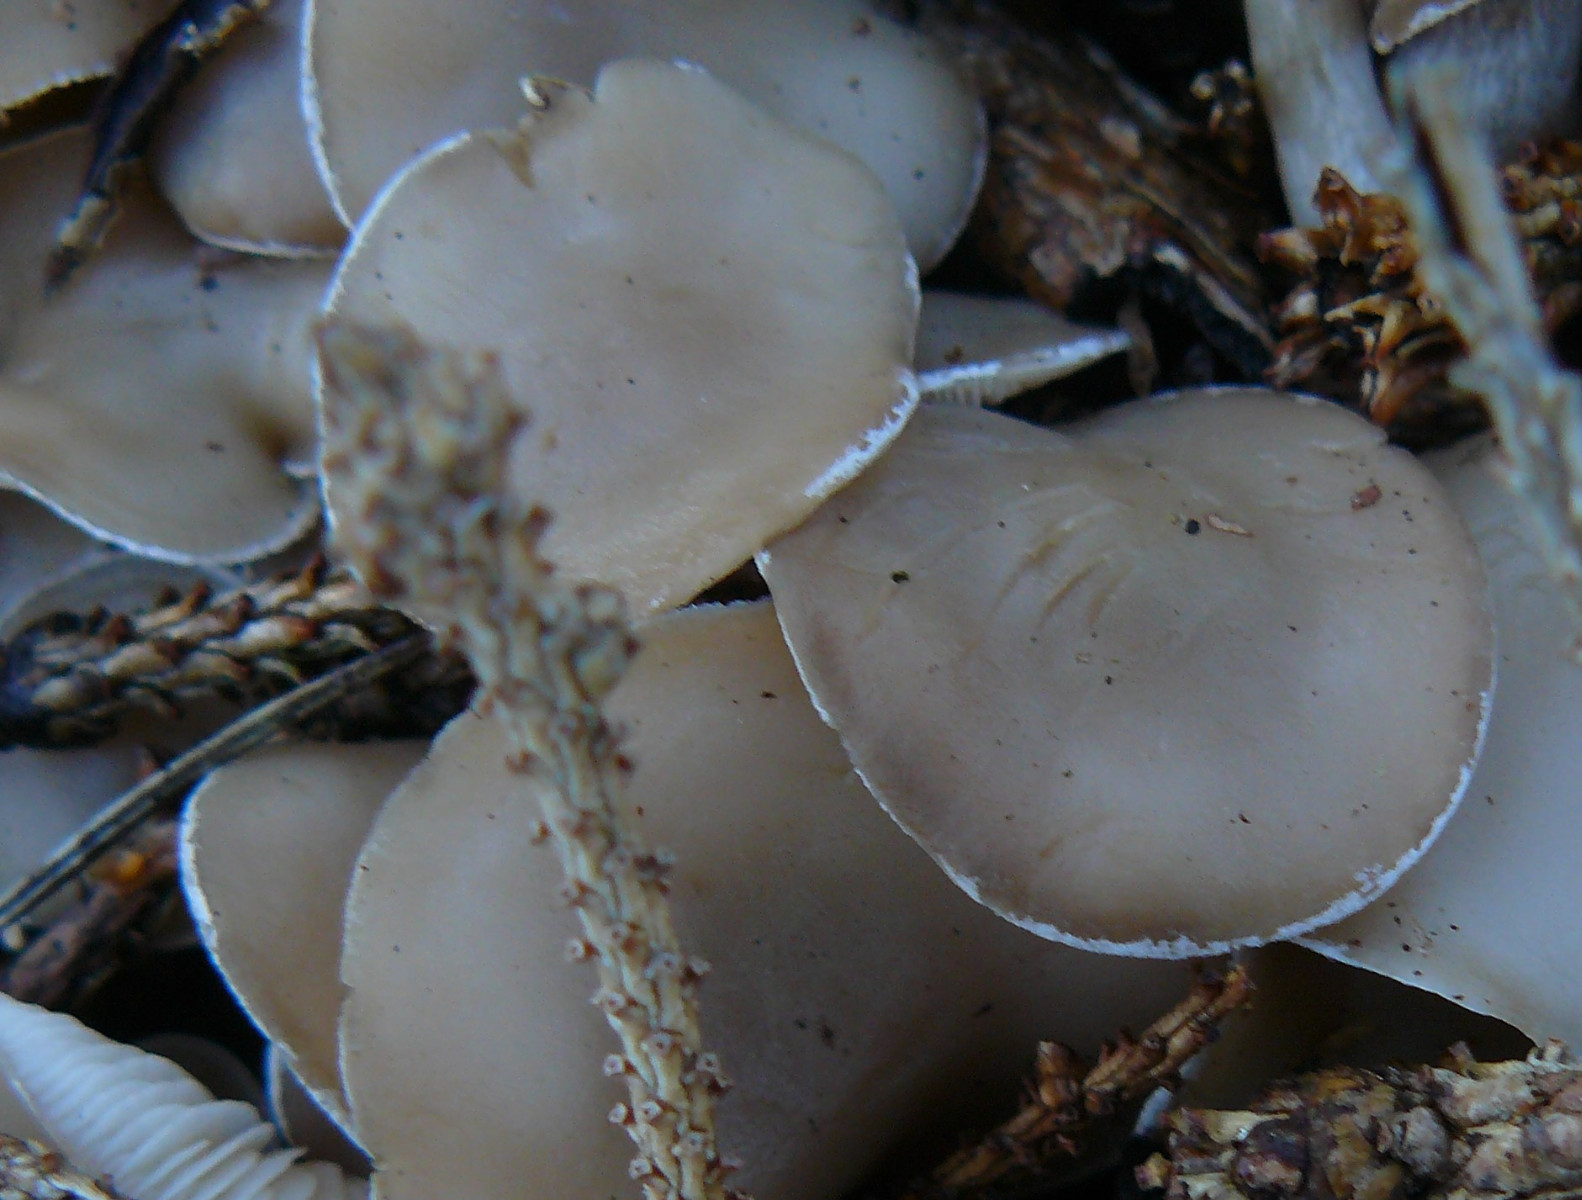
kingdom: Fungi
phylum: Basidiomycota
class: Agaricomycetes
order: Agaricales
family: Tricholomataceae
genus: Clitocybe
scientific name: Clitocybe
